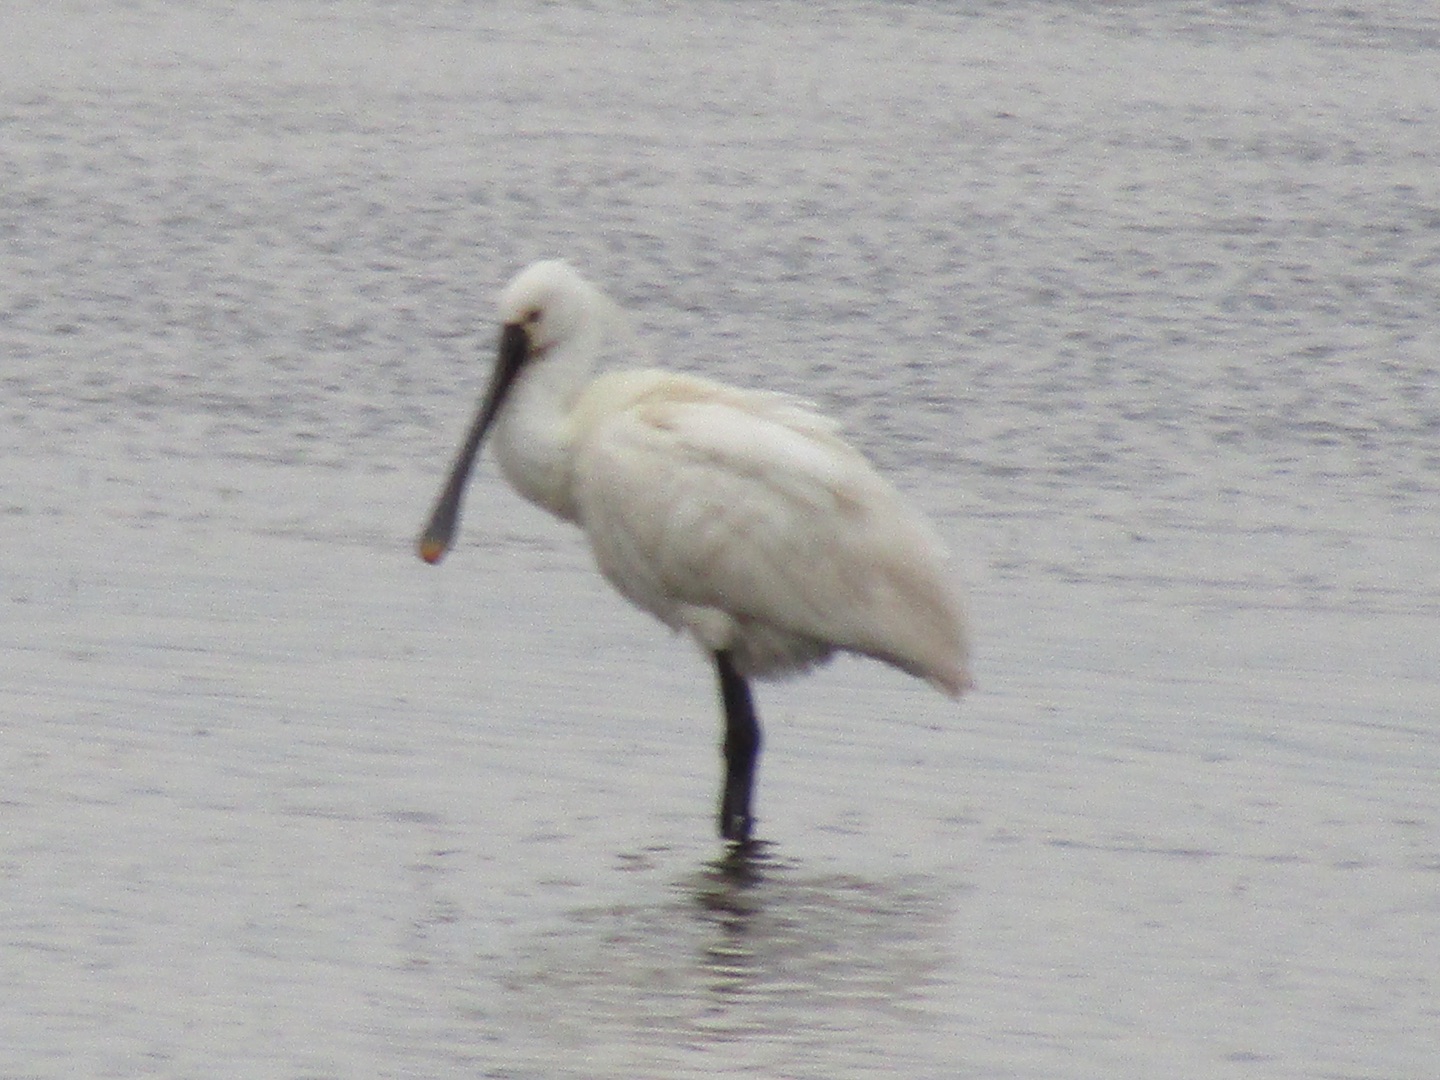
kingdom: Animalia
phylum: Chordata
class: Aves
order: Pelecaniformes
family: Threskiornithidae
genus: Platalea
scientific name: Platalea leucorodia
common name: Skestork
